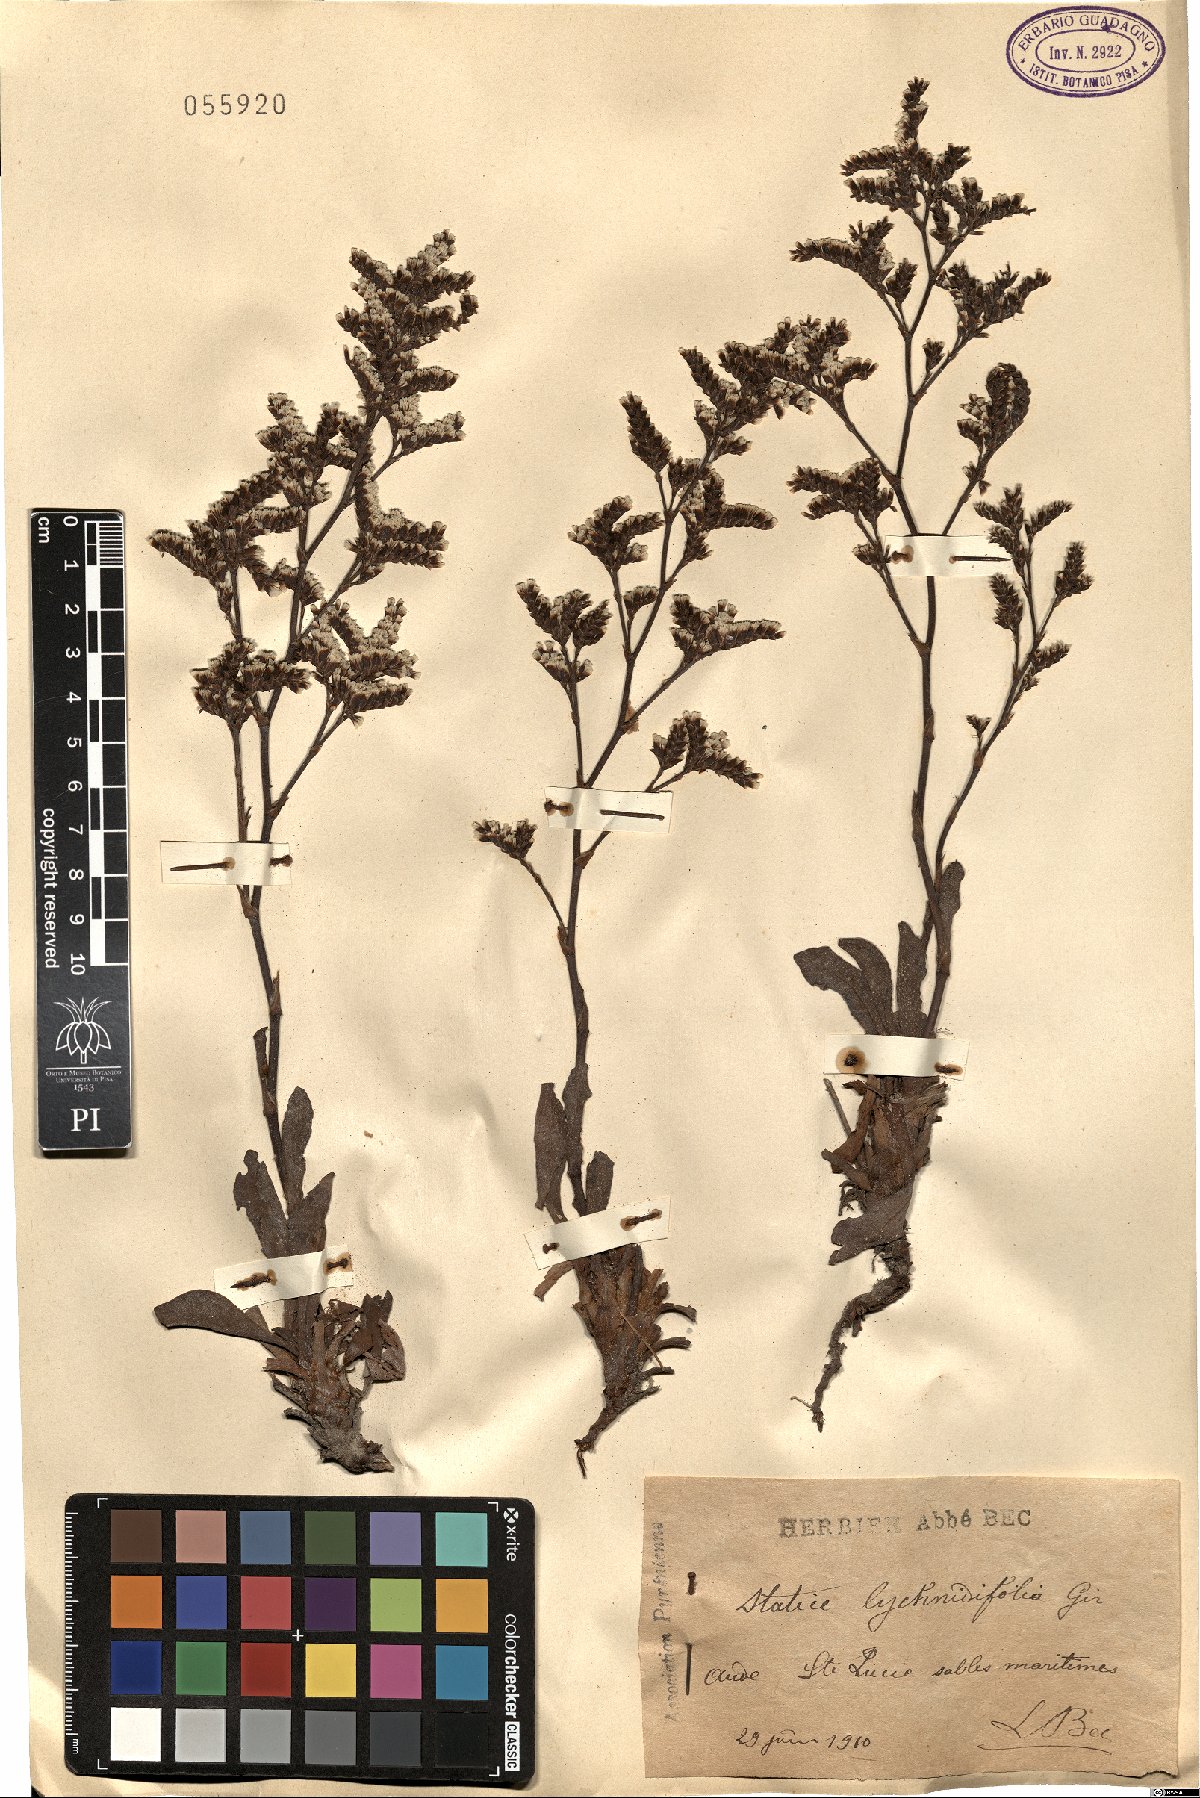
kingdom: Plantae
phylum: Tracheophyta
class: Magnoliopsida
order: Caryophyllales
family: Plumbaginaceae
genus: Limonium
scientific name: Limonium auriculae-ursifolium
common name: Broad-leaved sea-lavender
